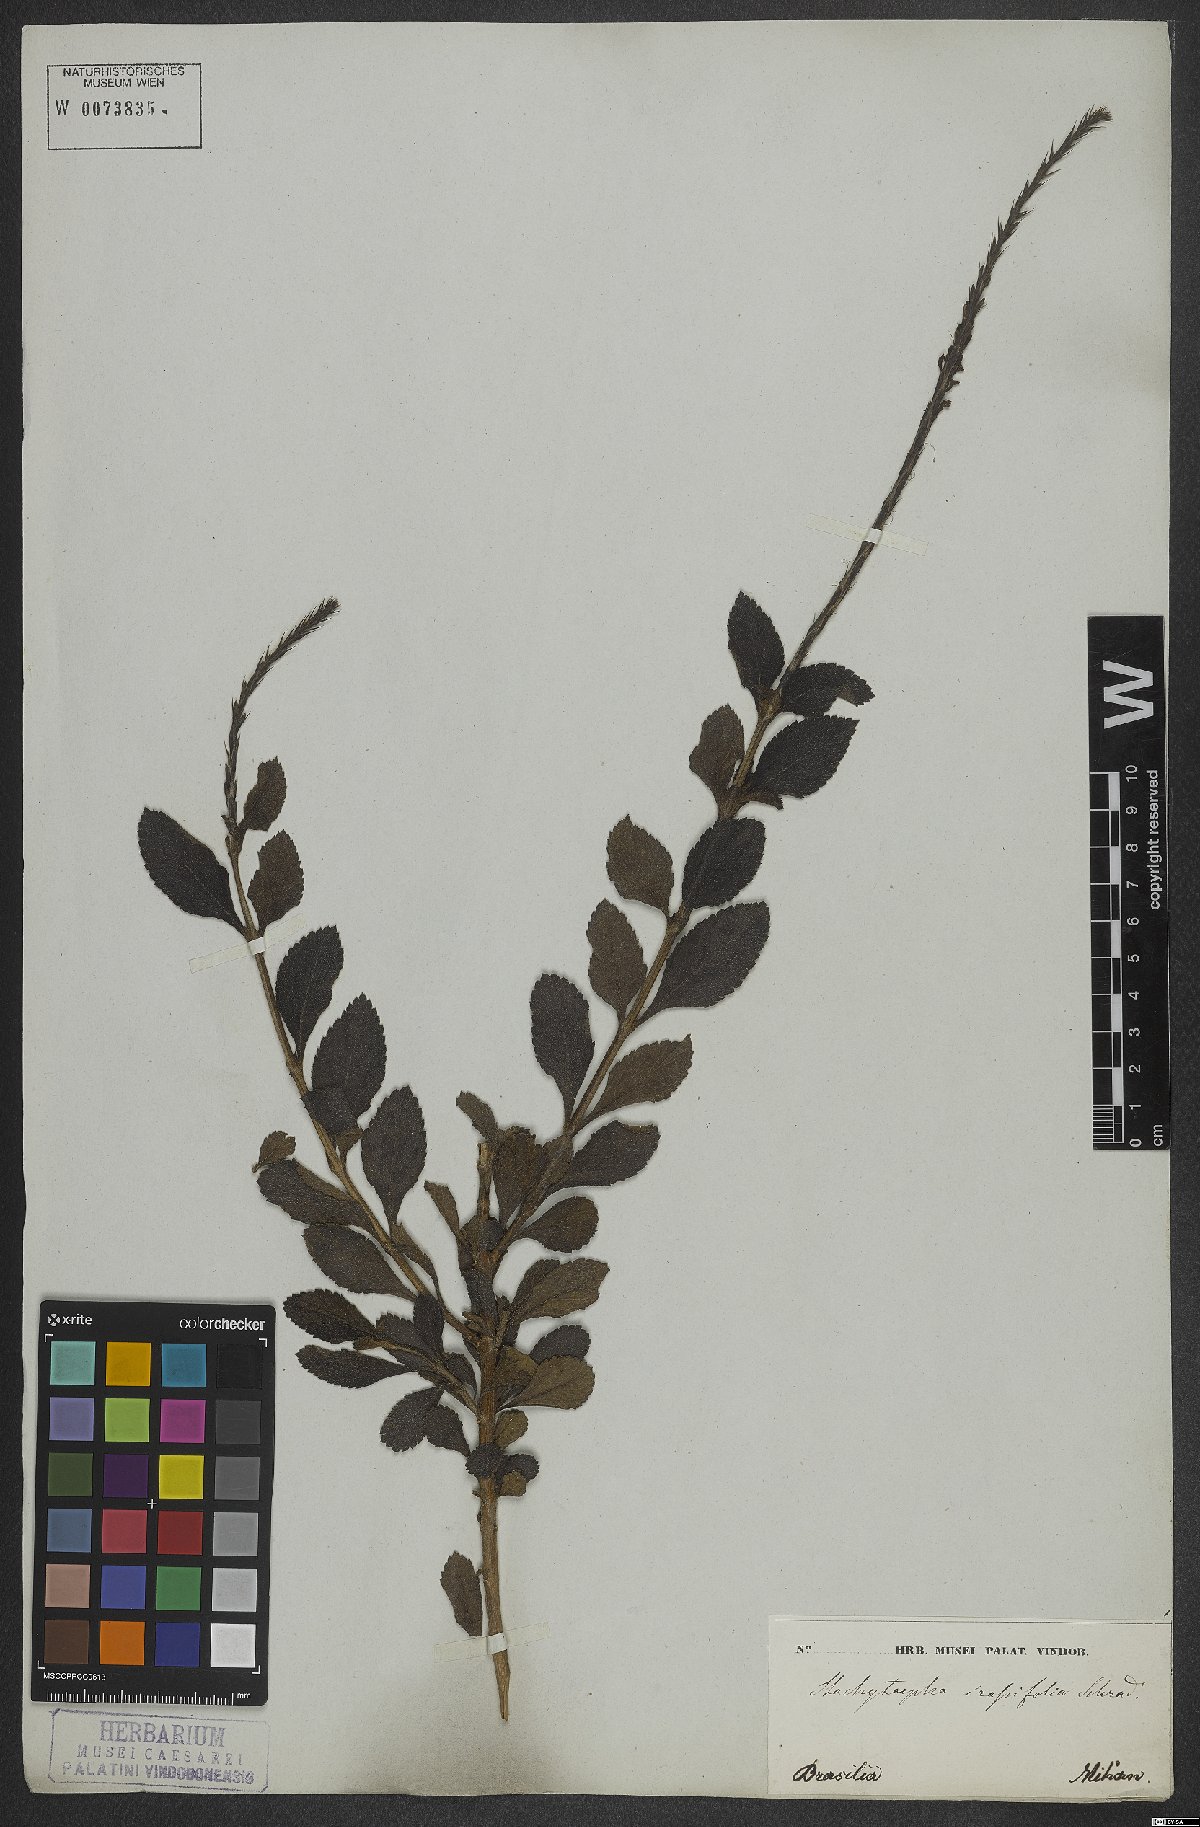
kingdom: Plantae
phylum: Tracheophyta
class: Magnoliopsida
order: Lamiales
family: Verbenaceae
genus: Stachytarpheta
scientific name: Stachytarpheta crassifolia
